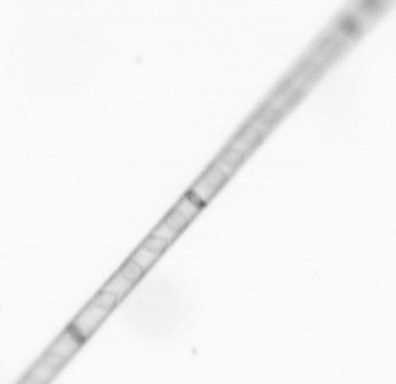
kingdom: Chromista
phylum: Ochrophyta
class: Bacillariophyceae
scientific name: Bacillariophyceae
